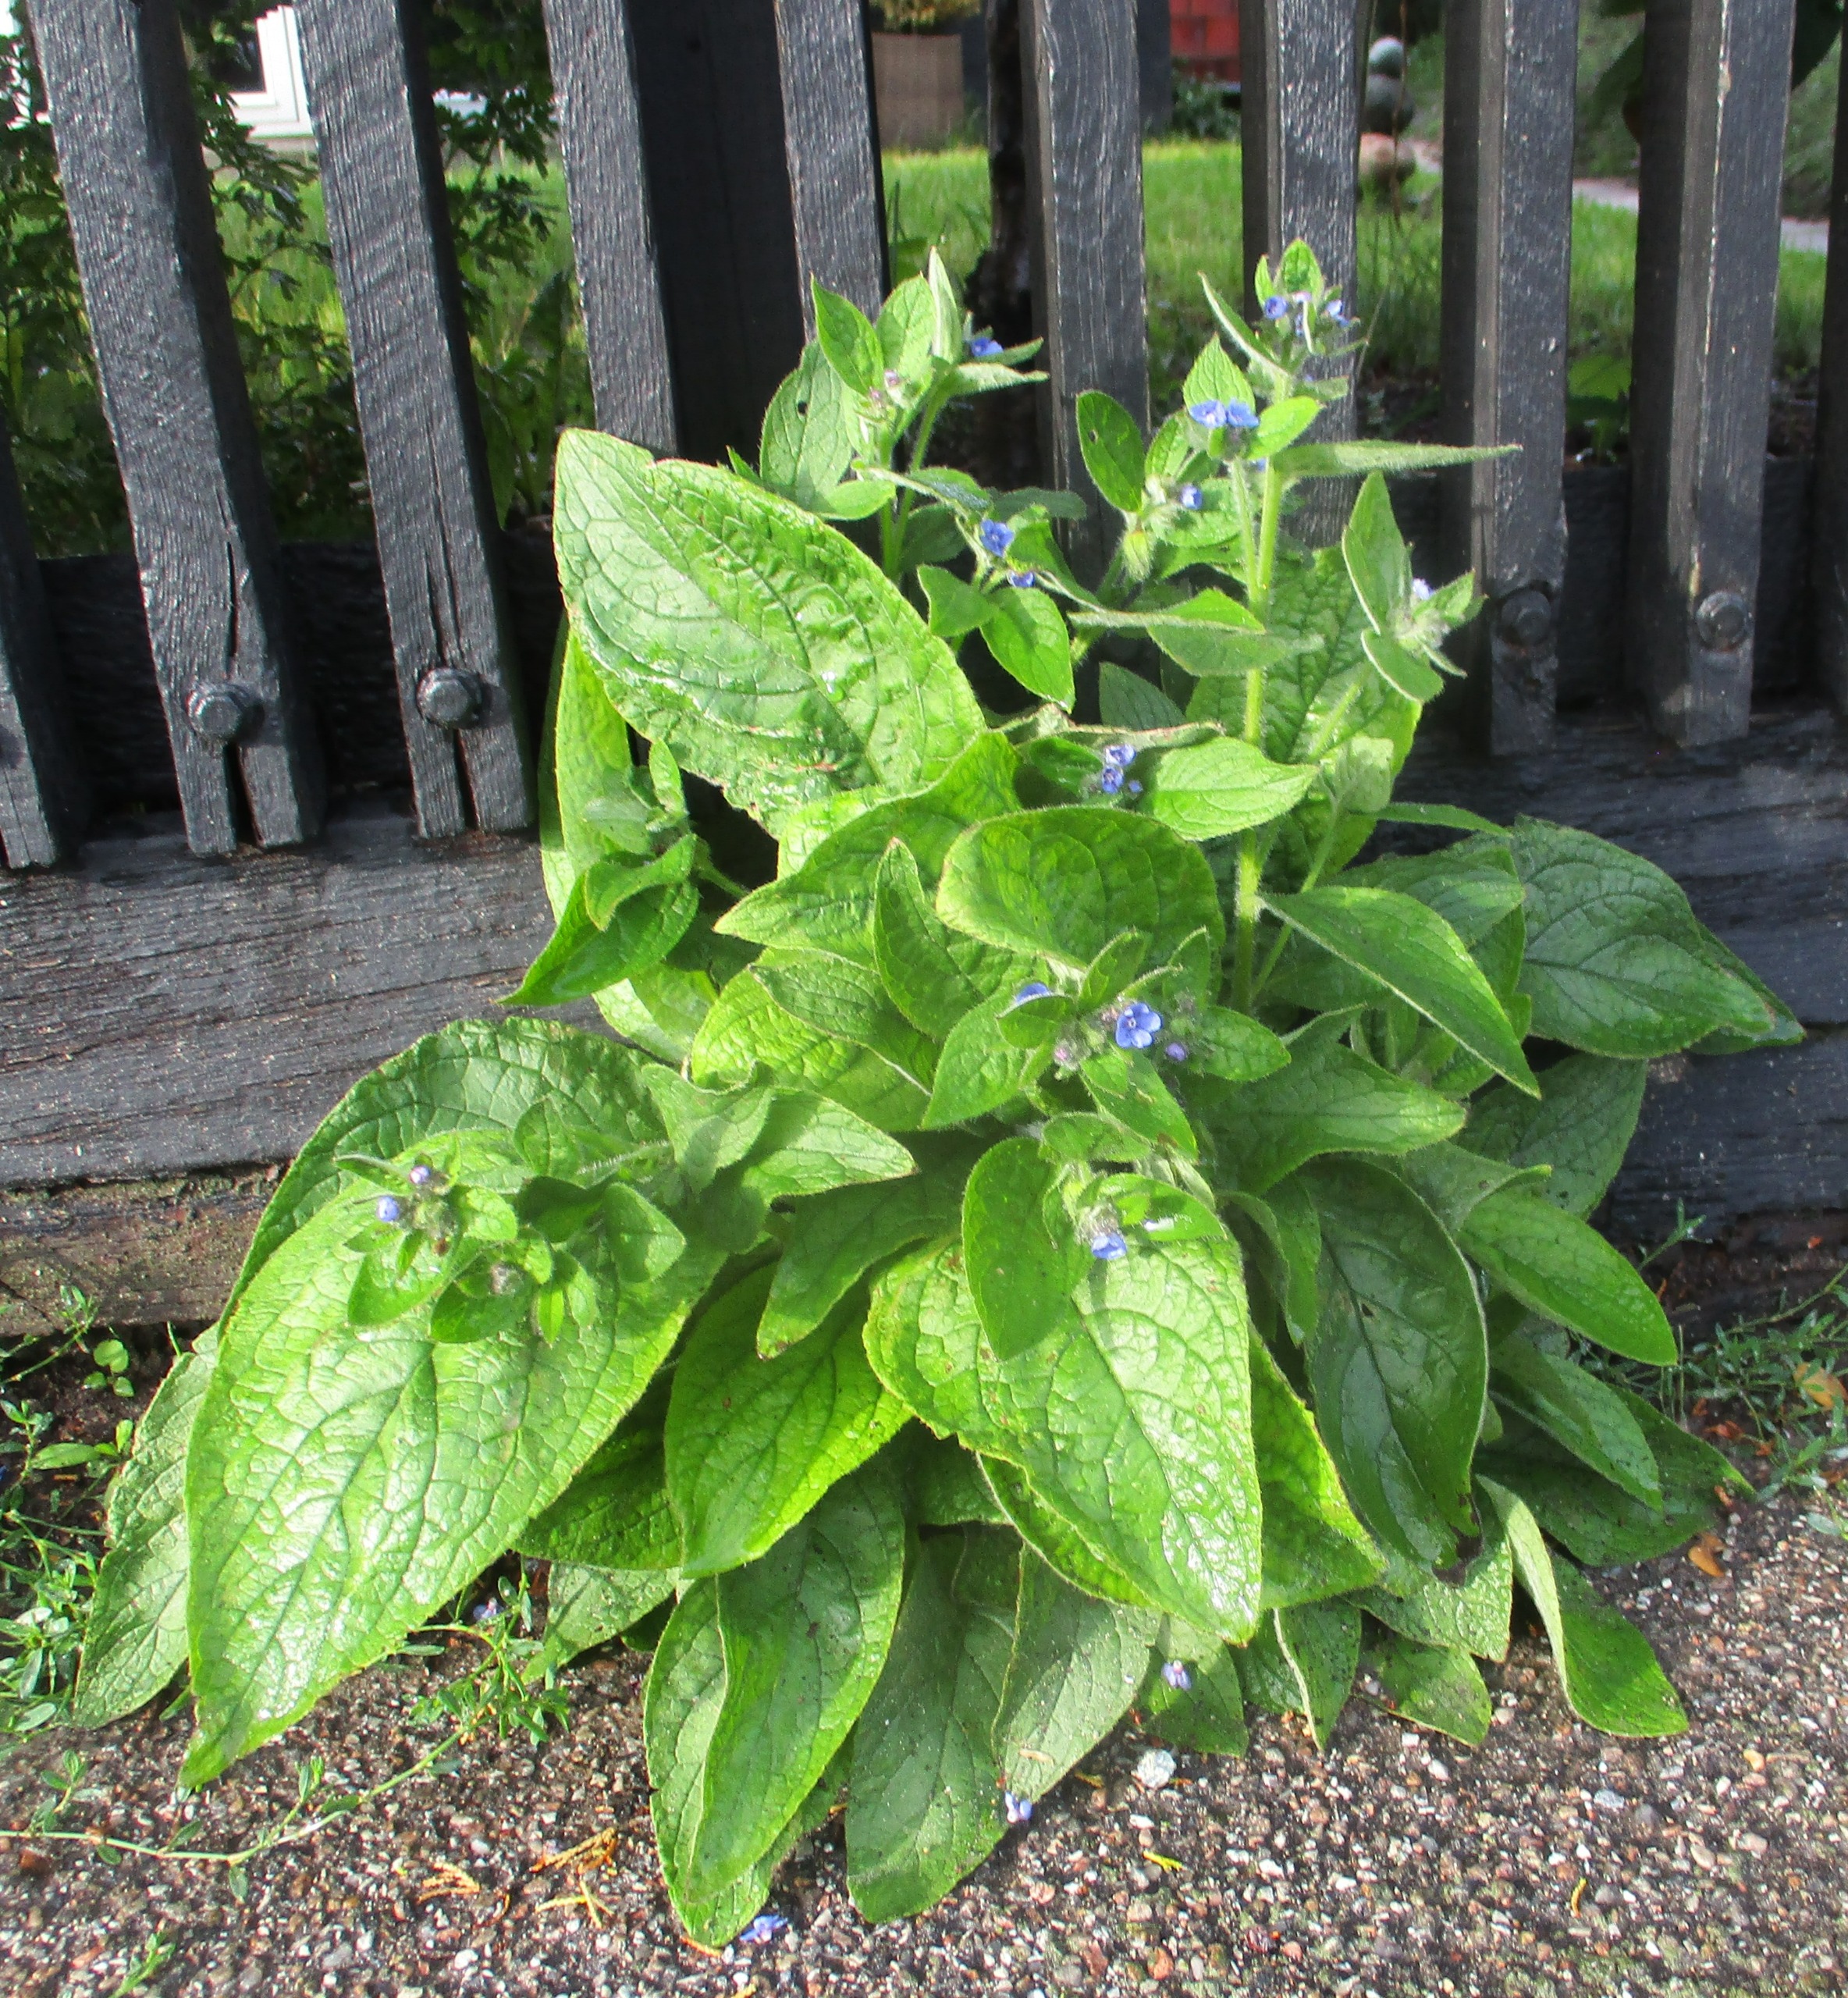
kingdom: Plantae
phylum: Tracheophyta
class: Magnoliopsida
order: Boraginales
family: Boraginaceae
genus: Pentaglottis
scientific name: Pentaglottis sempervirens
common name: Femtunge
